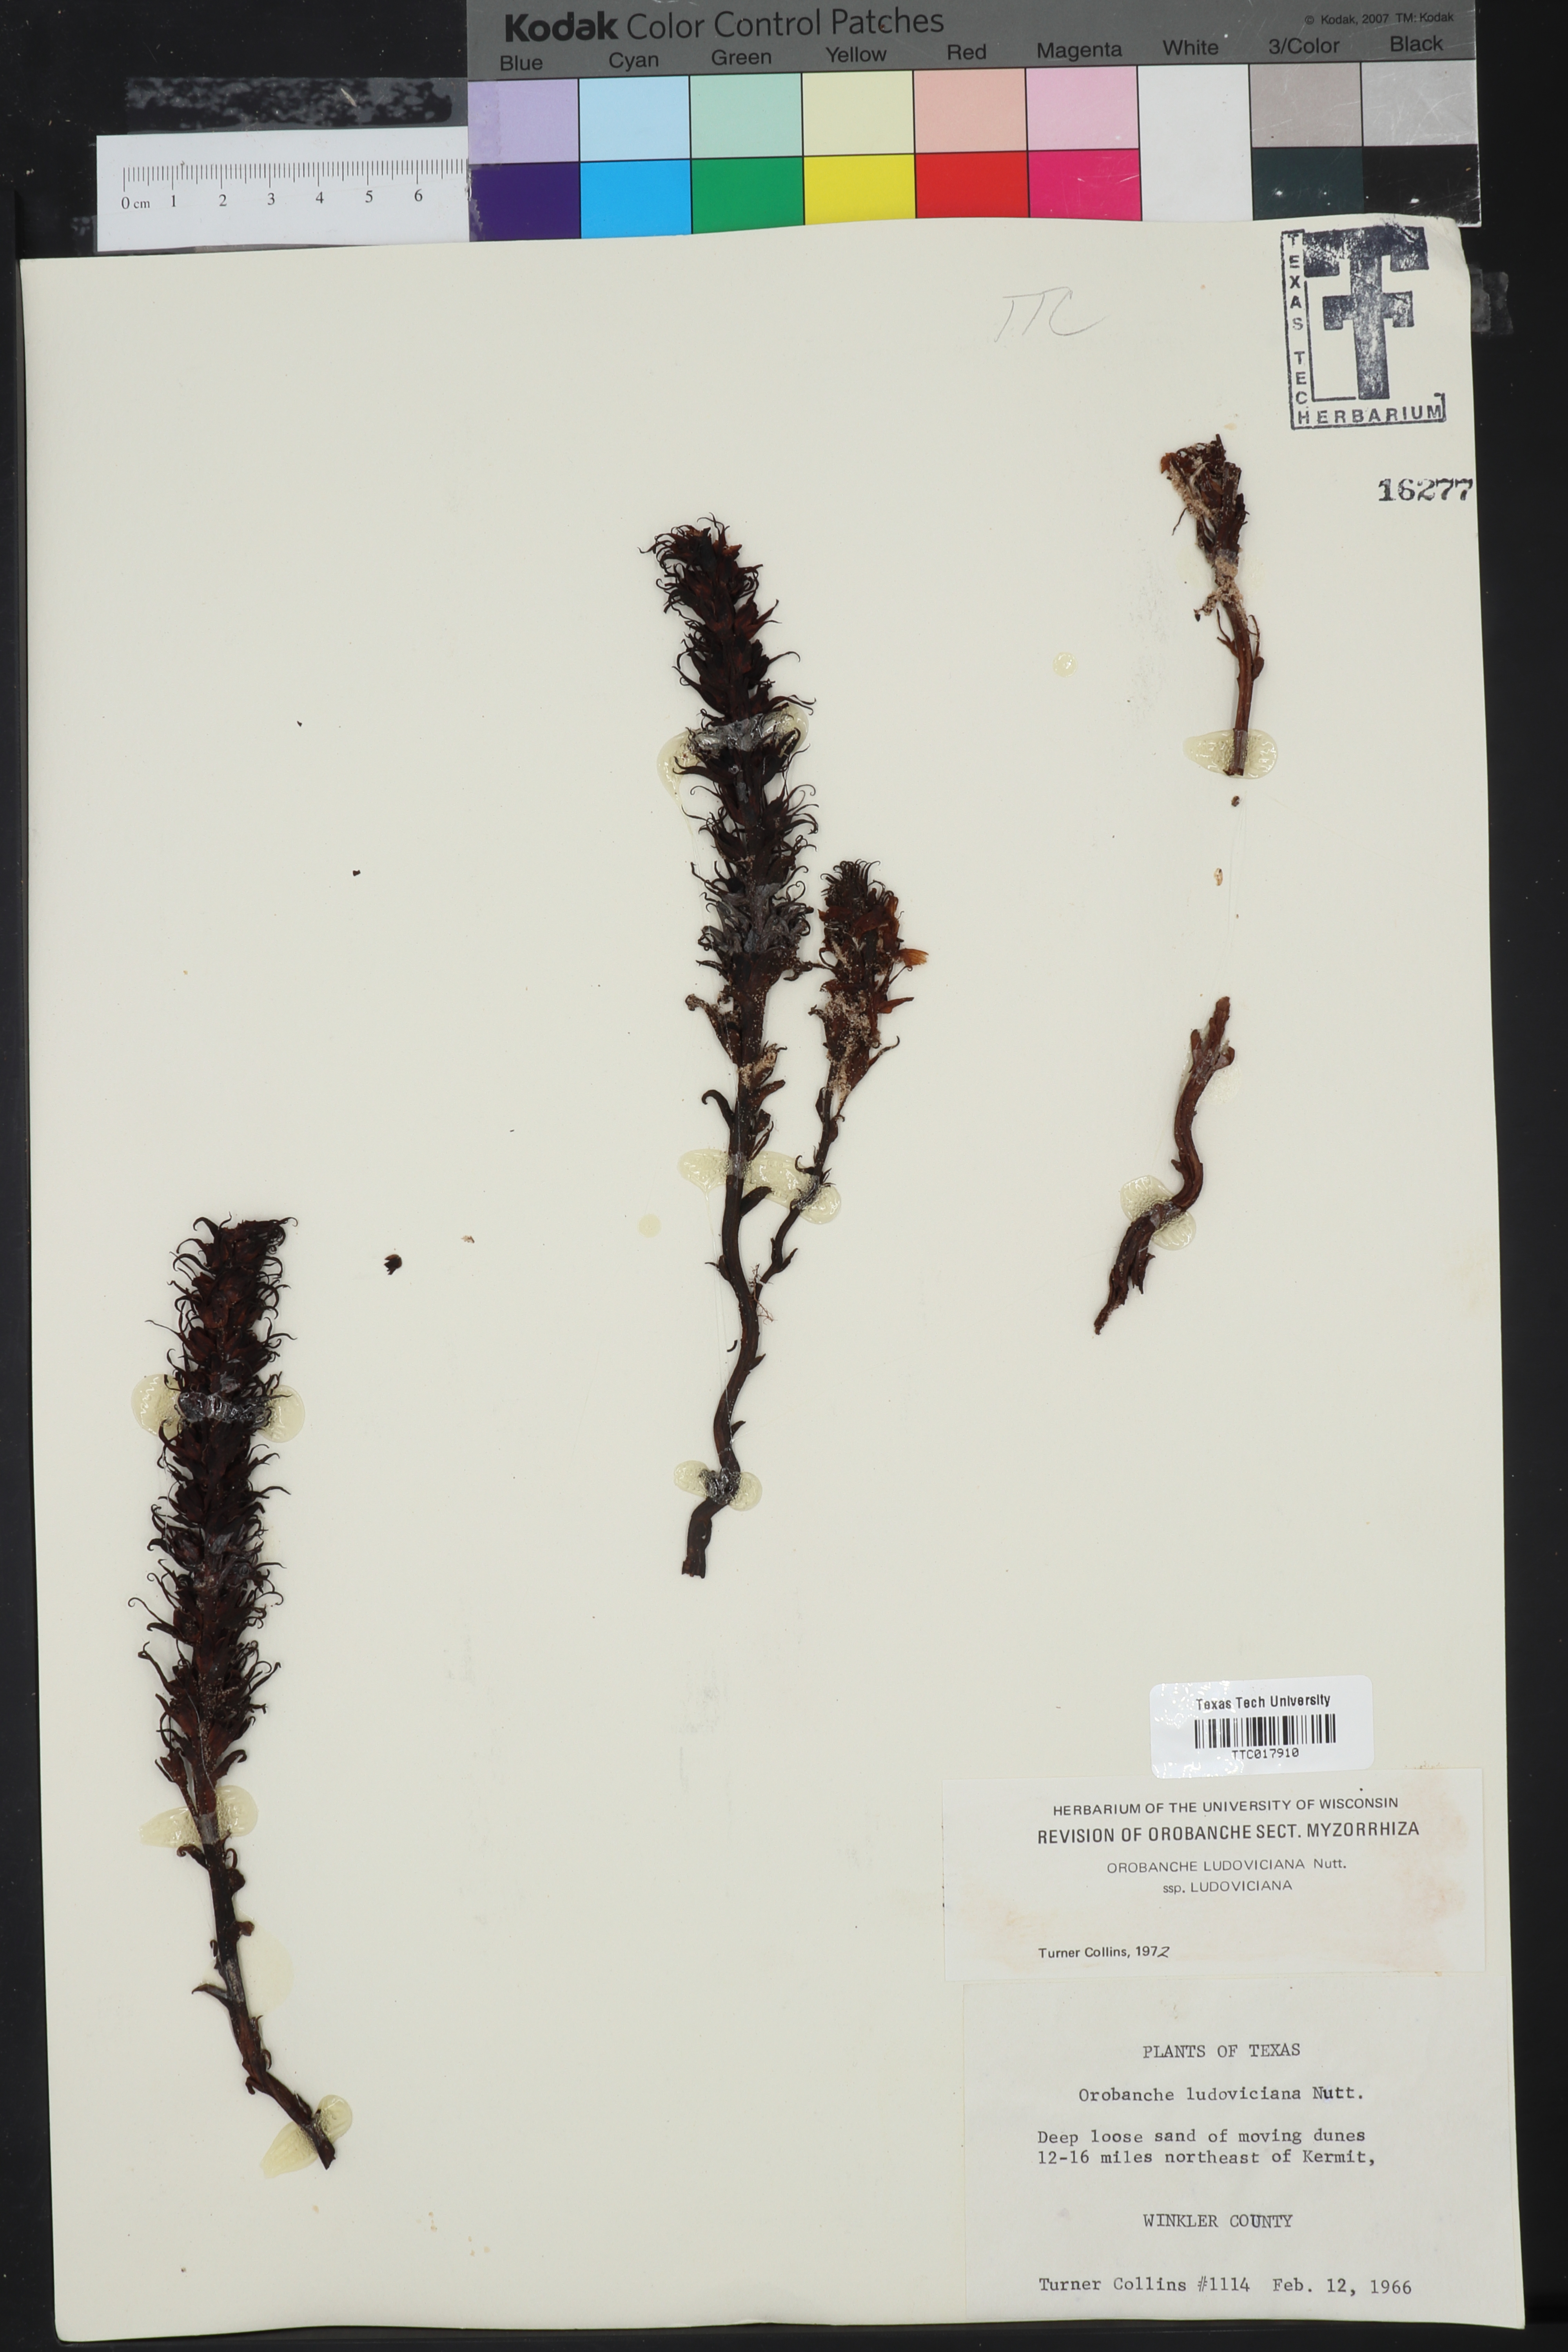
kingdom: Plantae
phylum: Tracheophyta
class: Magnoliopsida
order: Lamiales
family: Orobanchaceae
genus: Aphyllon
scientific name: Aphyllon ludovicianum
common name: Louisiana broomrape
